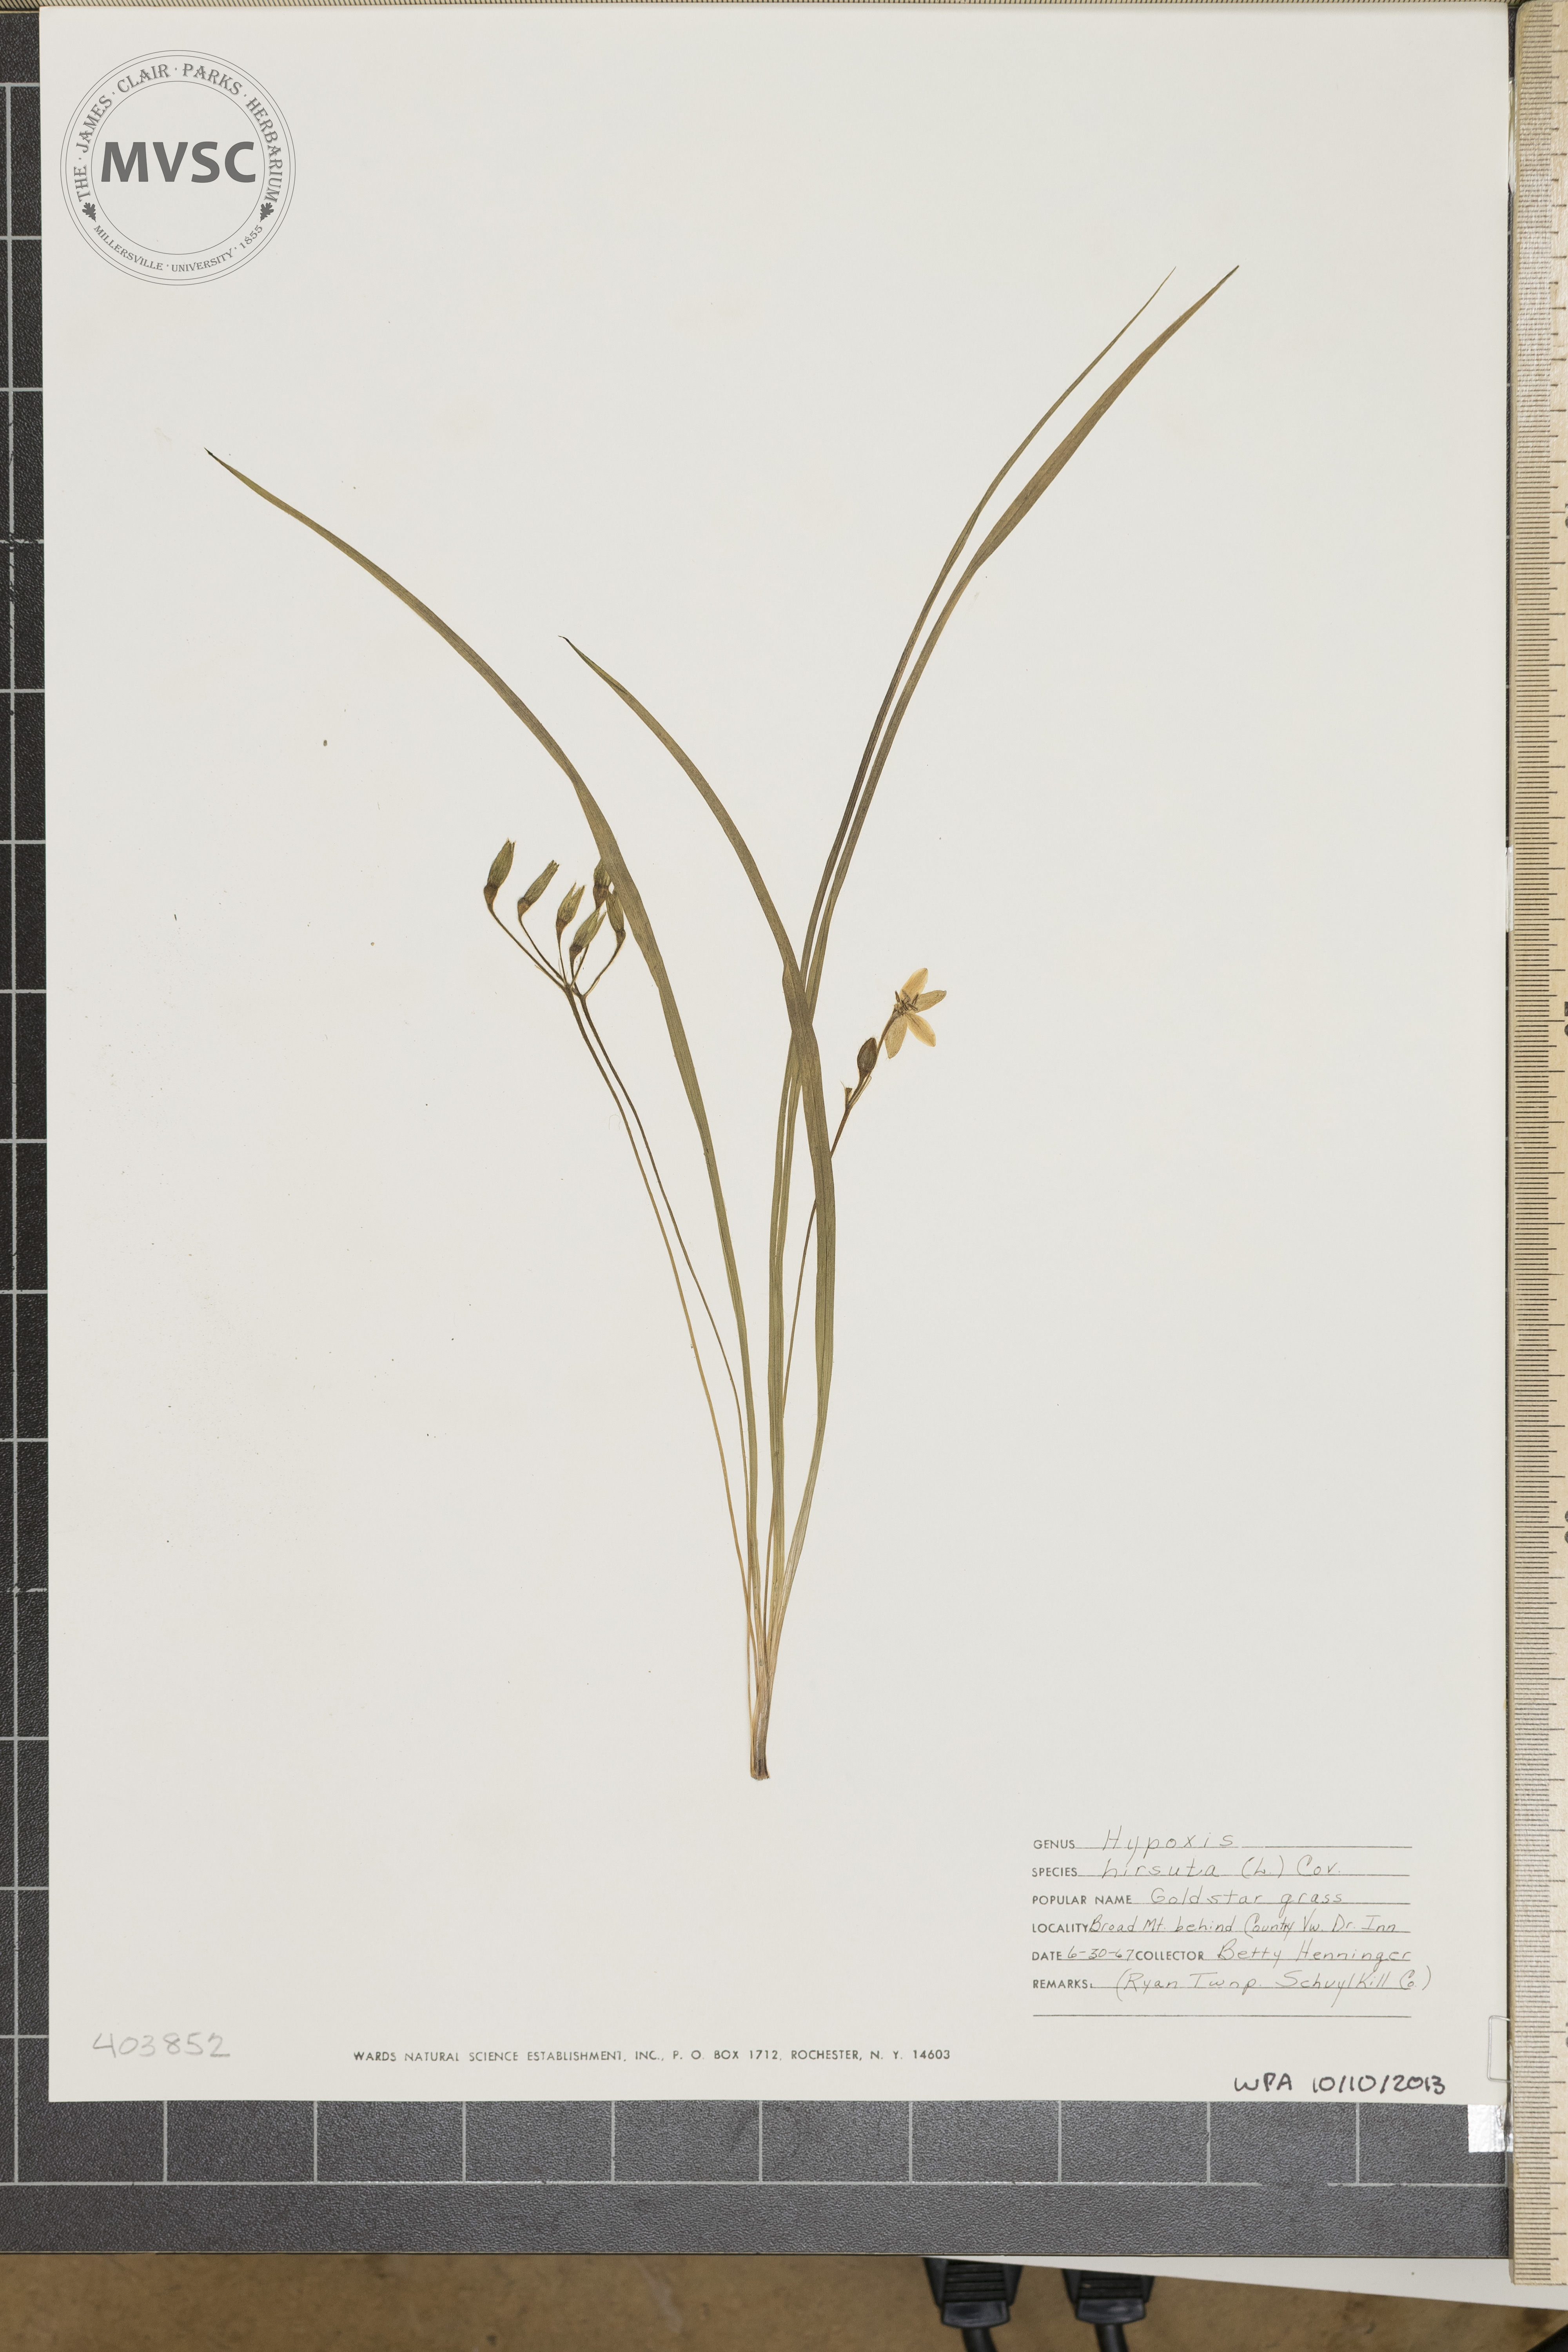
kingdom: Plantae
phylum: Tracheophyta
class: Liliopsida
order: Asparagales
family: Hypoxidaceae
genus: Hypoxis
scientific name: Hypoxis hirsuta
